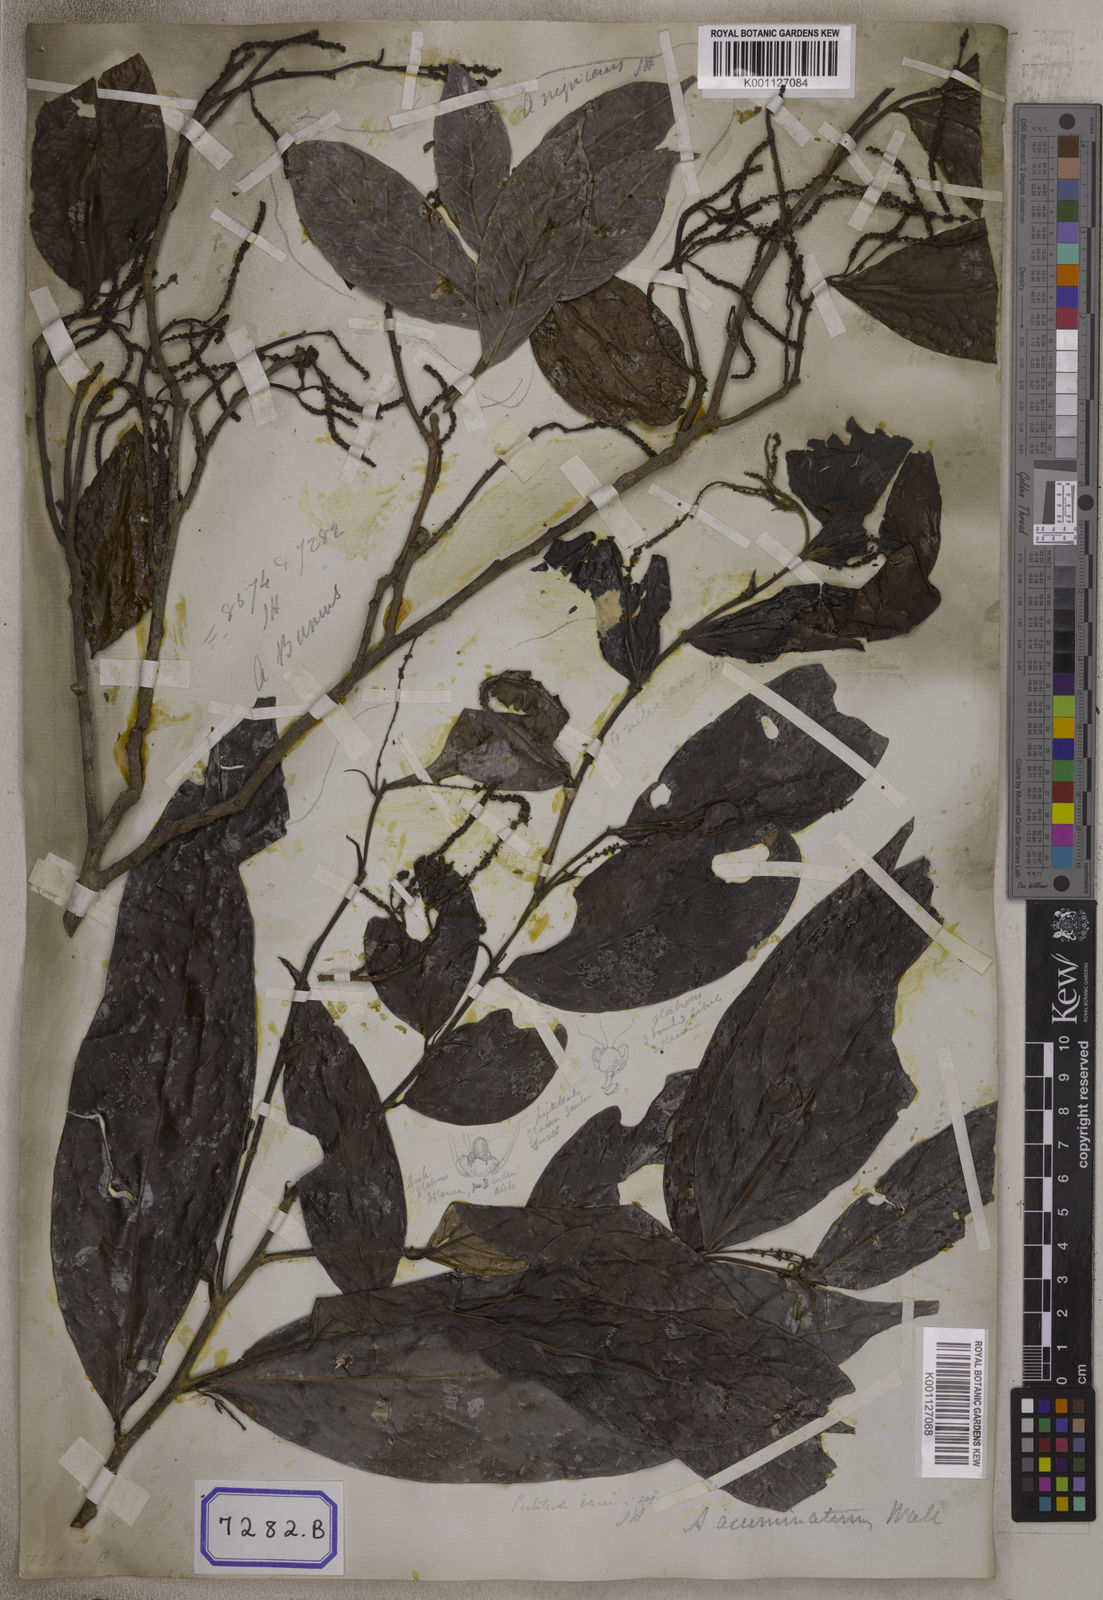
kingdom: Plantae
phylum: Tracheophyta
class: Magnoliopsida
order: Malpighiales
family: Phyllanthaceae
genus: Antidesma
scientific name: Antidesma nigricans
